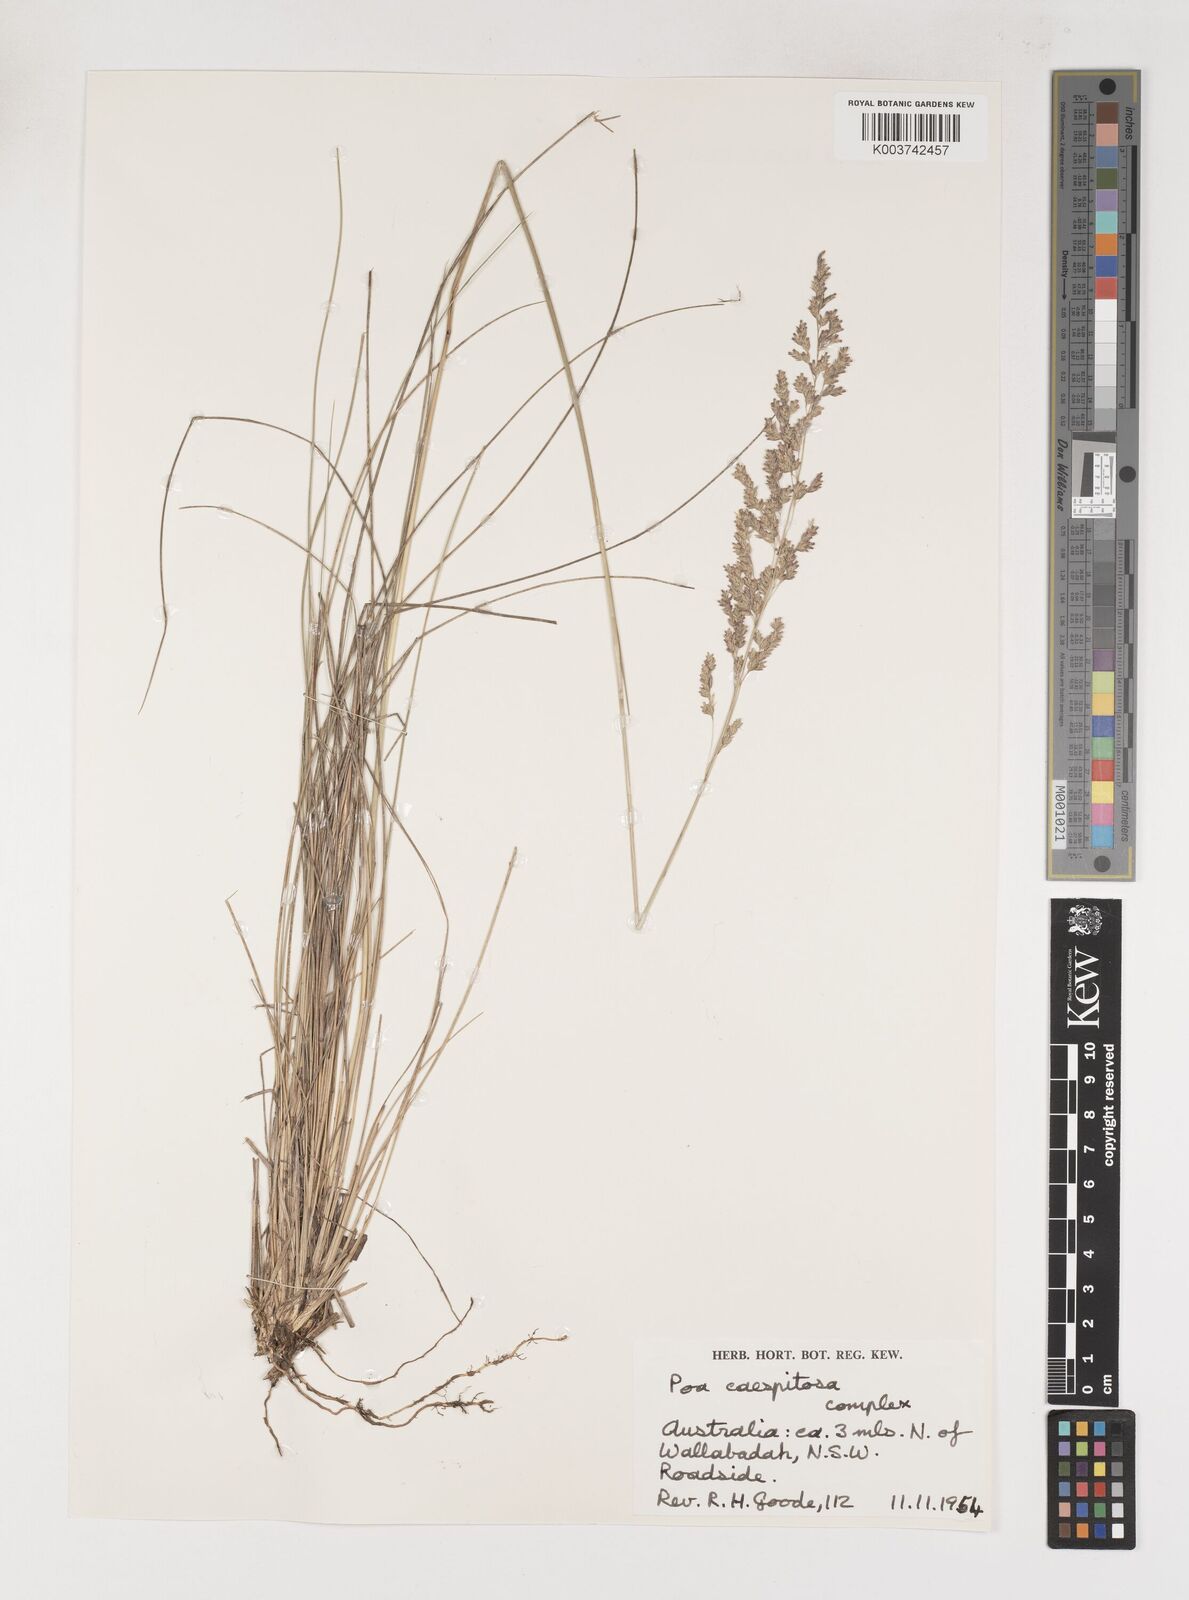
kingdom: Plantae
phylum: Tracheophyta
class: Liliopsida
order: Poales
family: Poaceae
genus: Poa
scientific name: Poa
